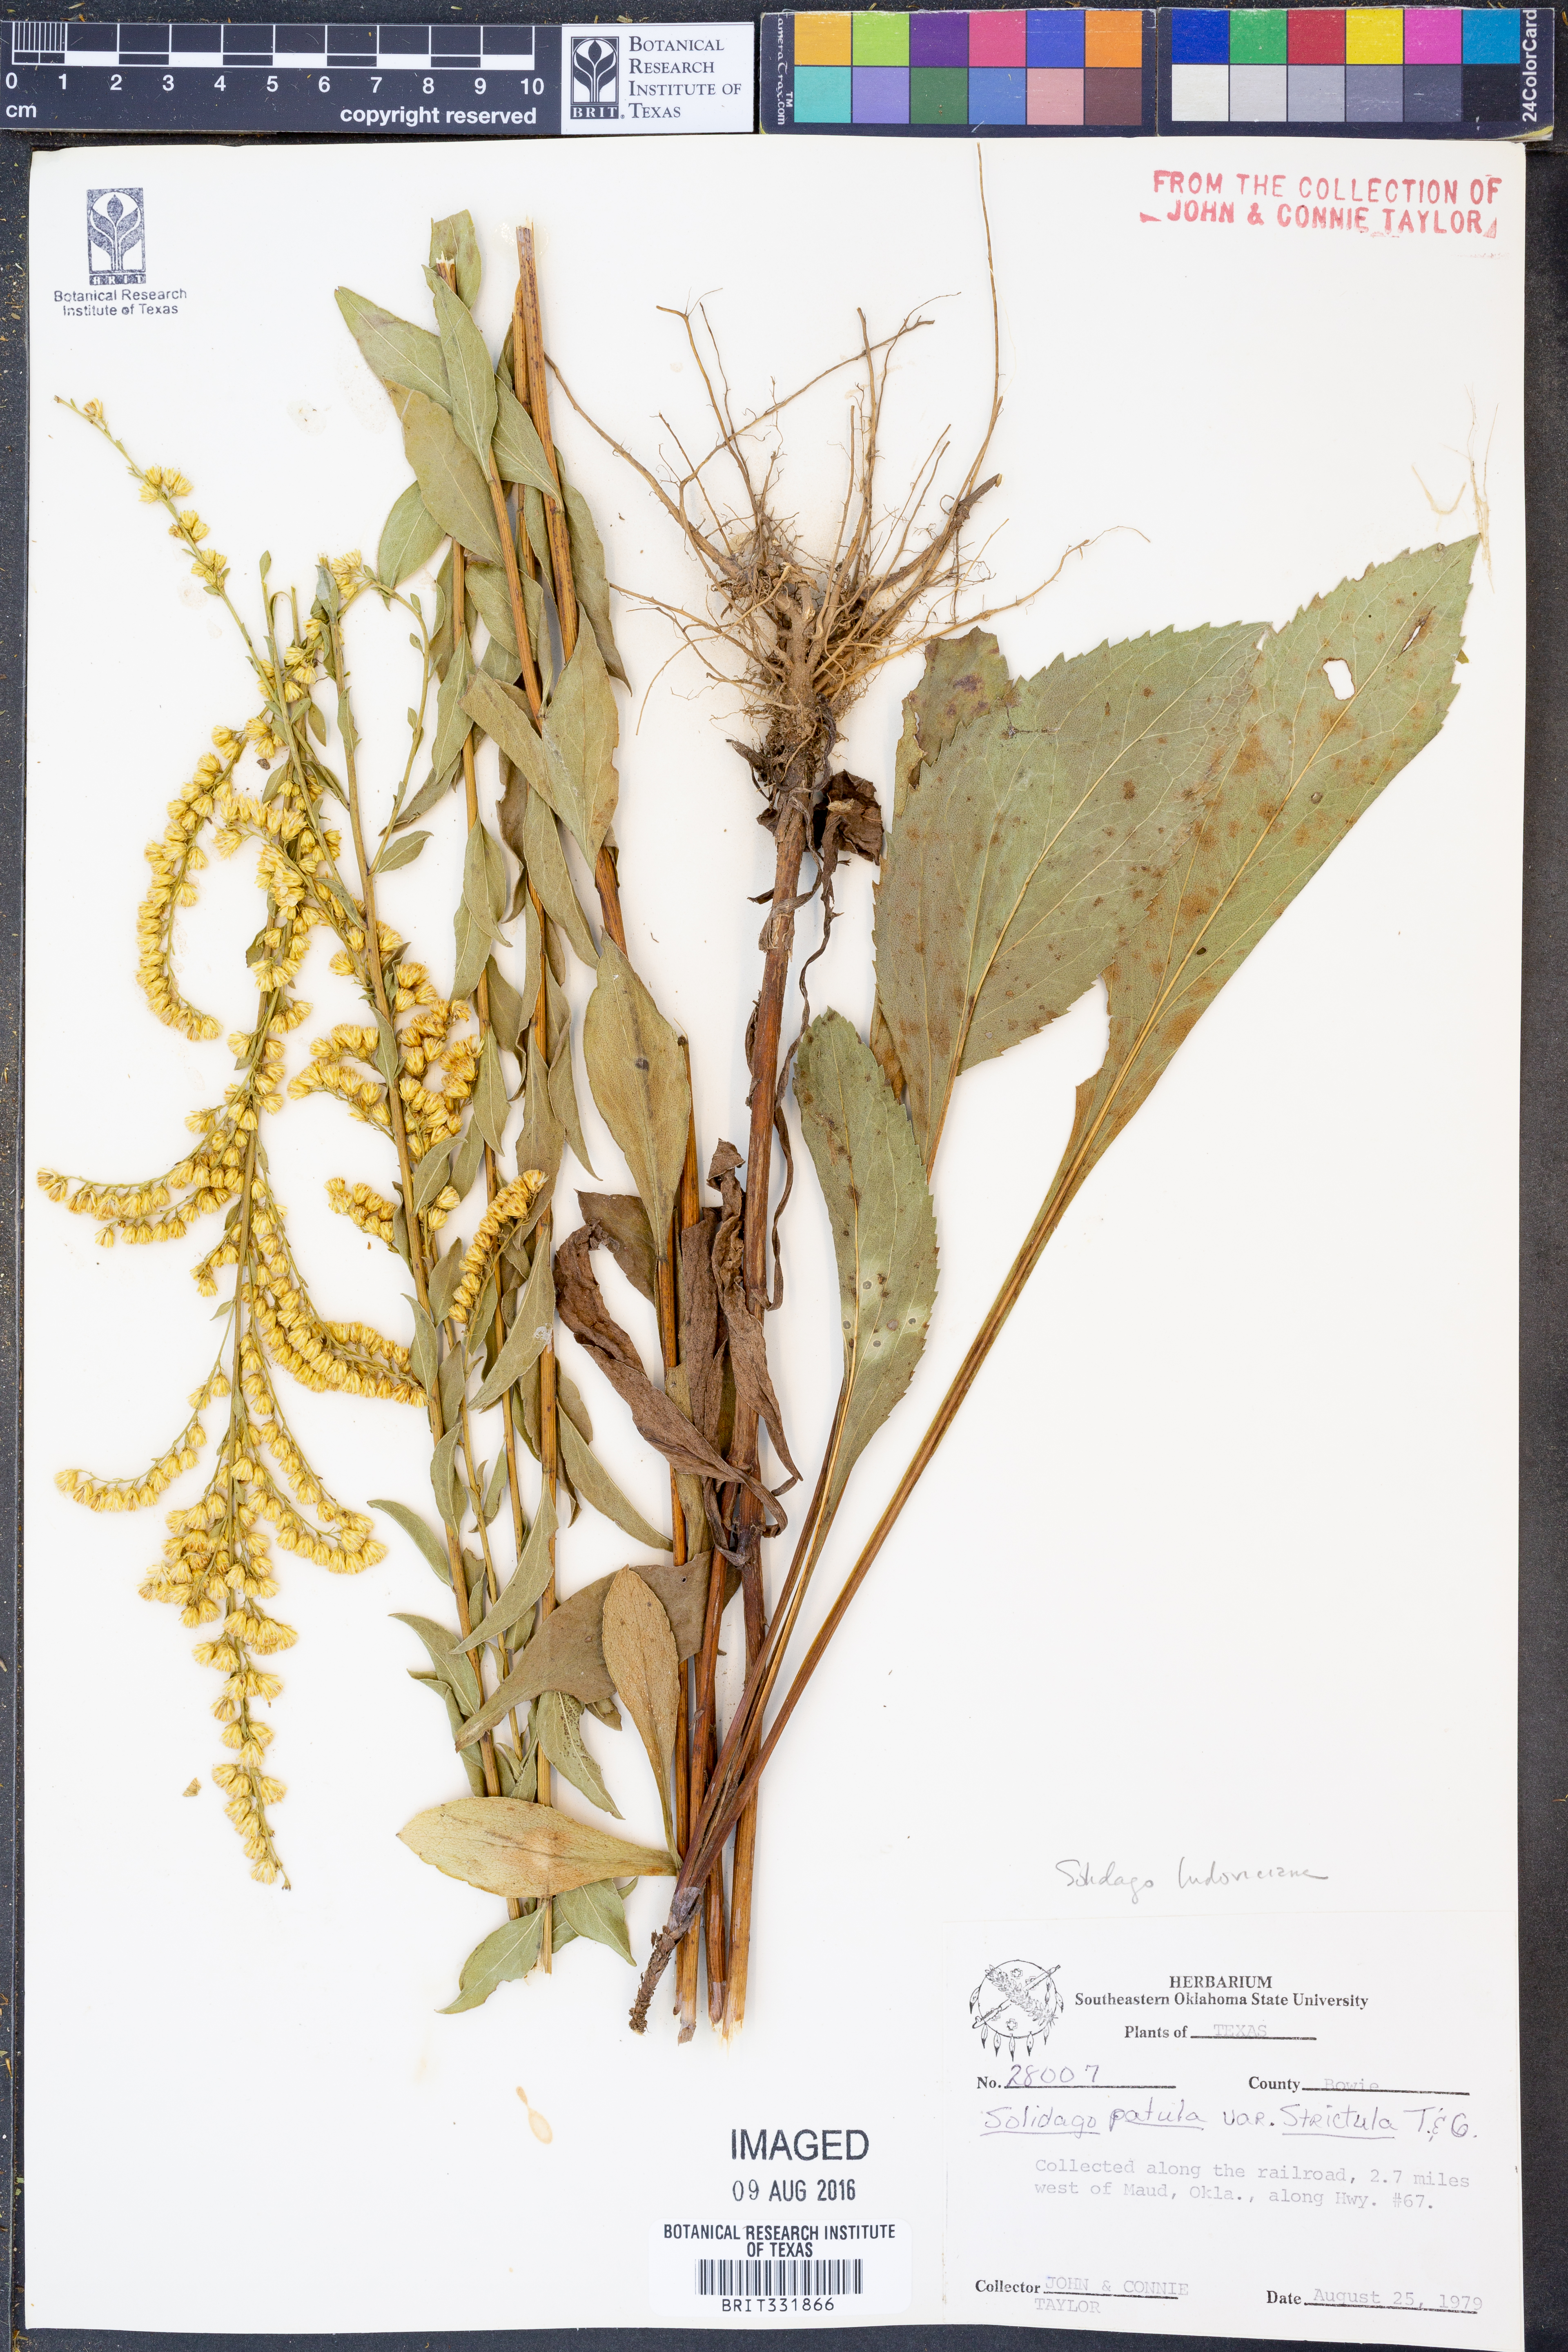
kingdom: Plantae
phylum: Tracheophyta
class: Magnoliopsida
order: Asterales
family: Asteraceae
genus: Solidago
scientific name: Solidago ludoviciana
